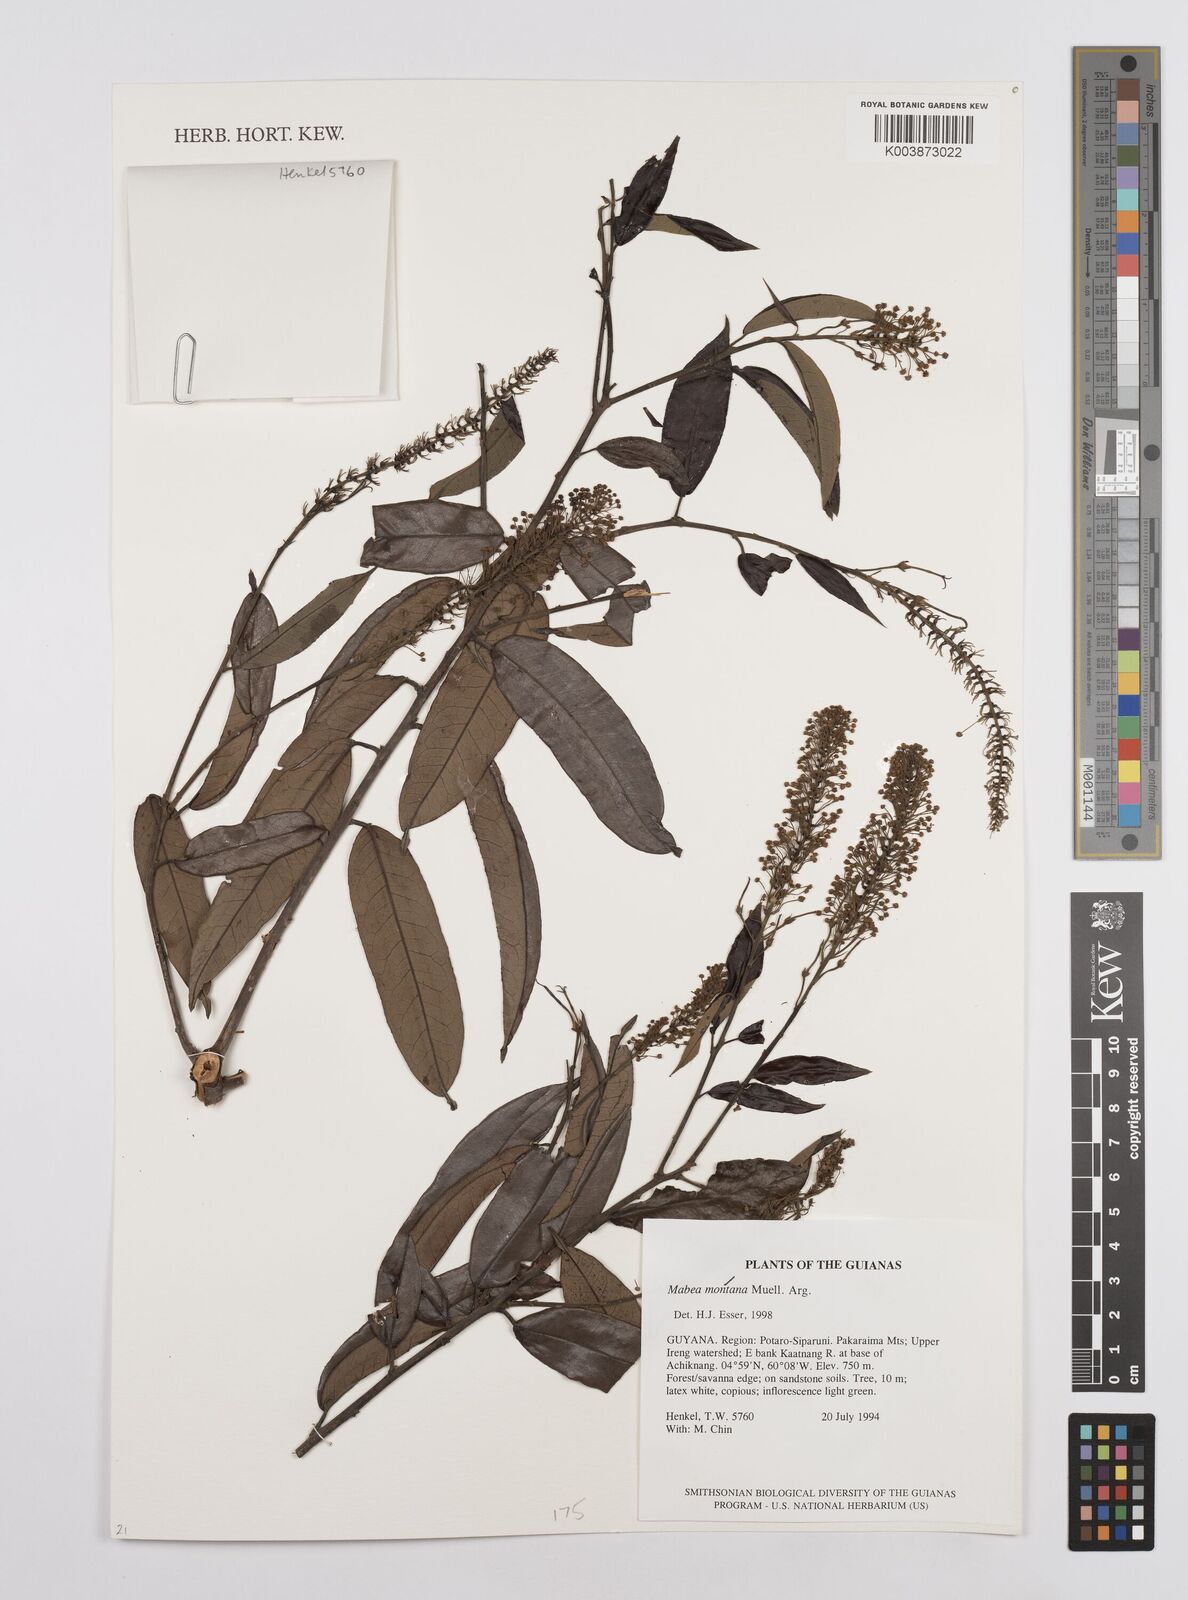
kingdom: Plantae
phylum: Tracheophyta
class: Magnoliopsida
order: Malpighiales
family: Euphorbiaceae
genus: Mabea
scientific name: Mabea montana
